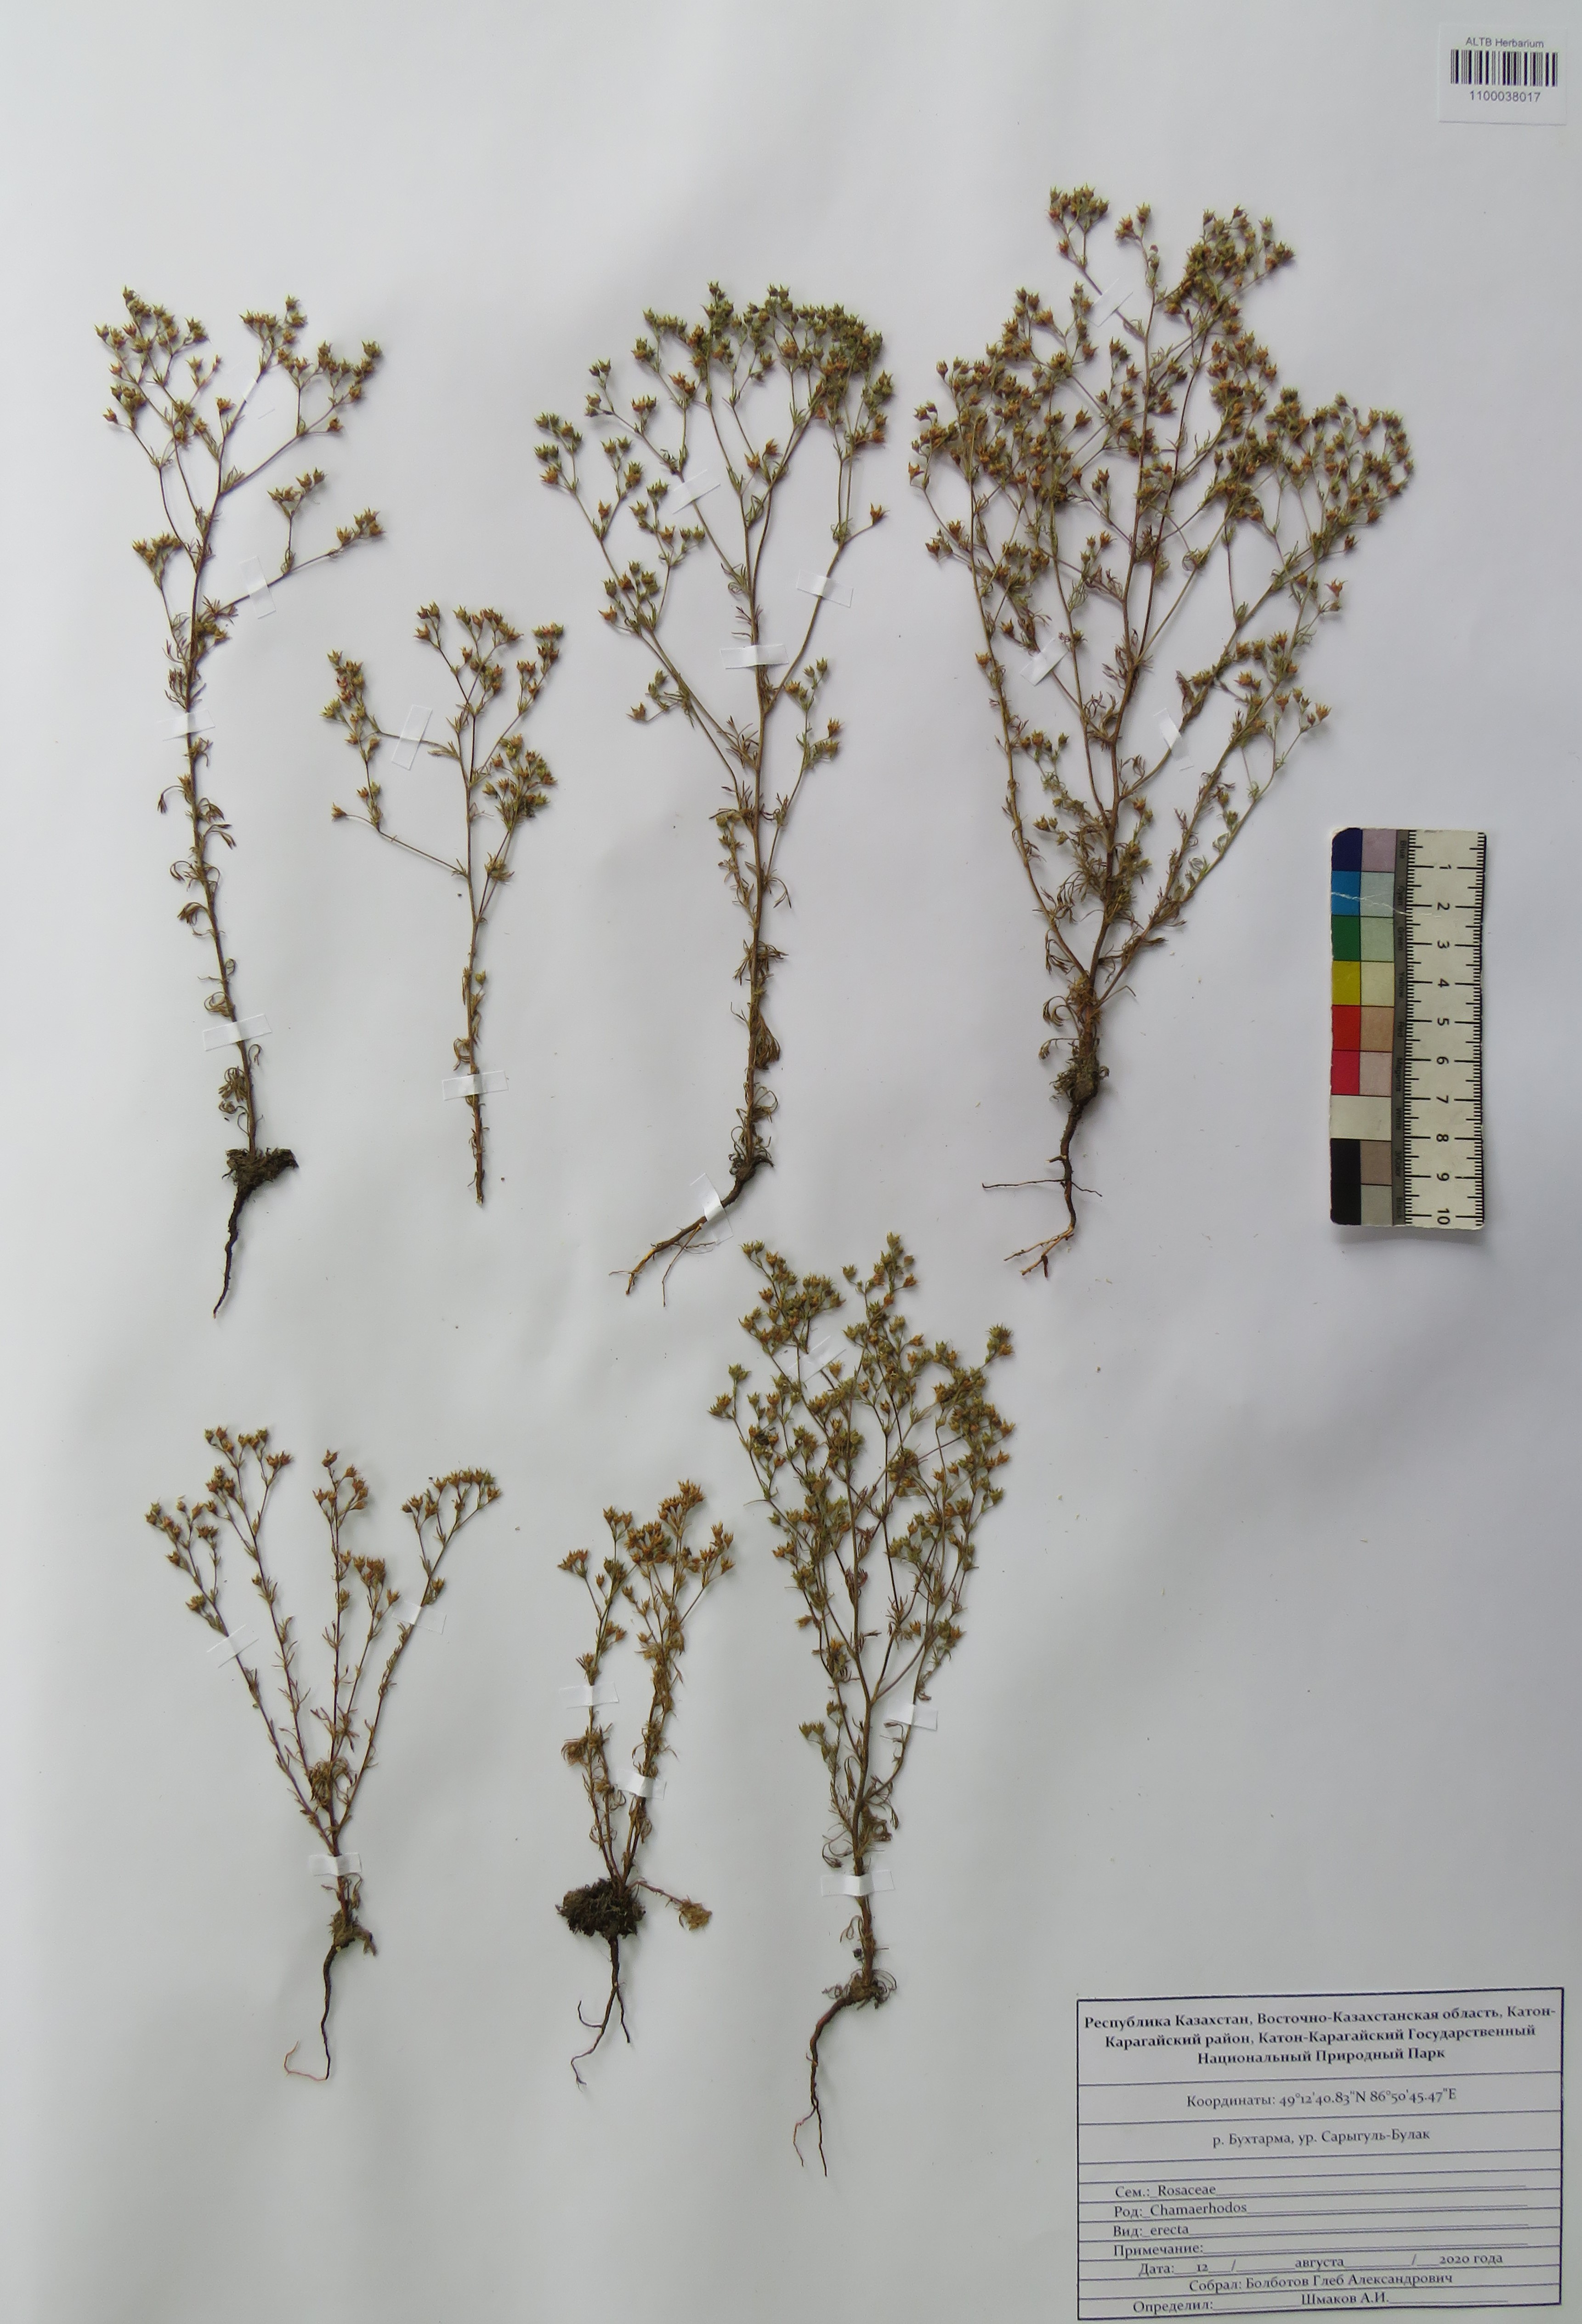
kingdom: Plantae
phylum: Tracheophyta
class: Magnoliopsida
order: Rosales
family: Rosaceae
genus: Chamaerhodos
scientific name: Chamaerhodos erecta
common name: American chamaerhodos
